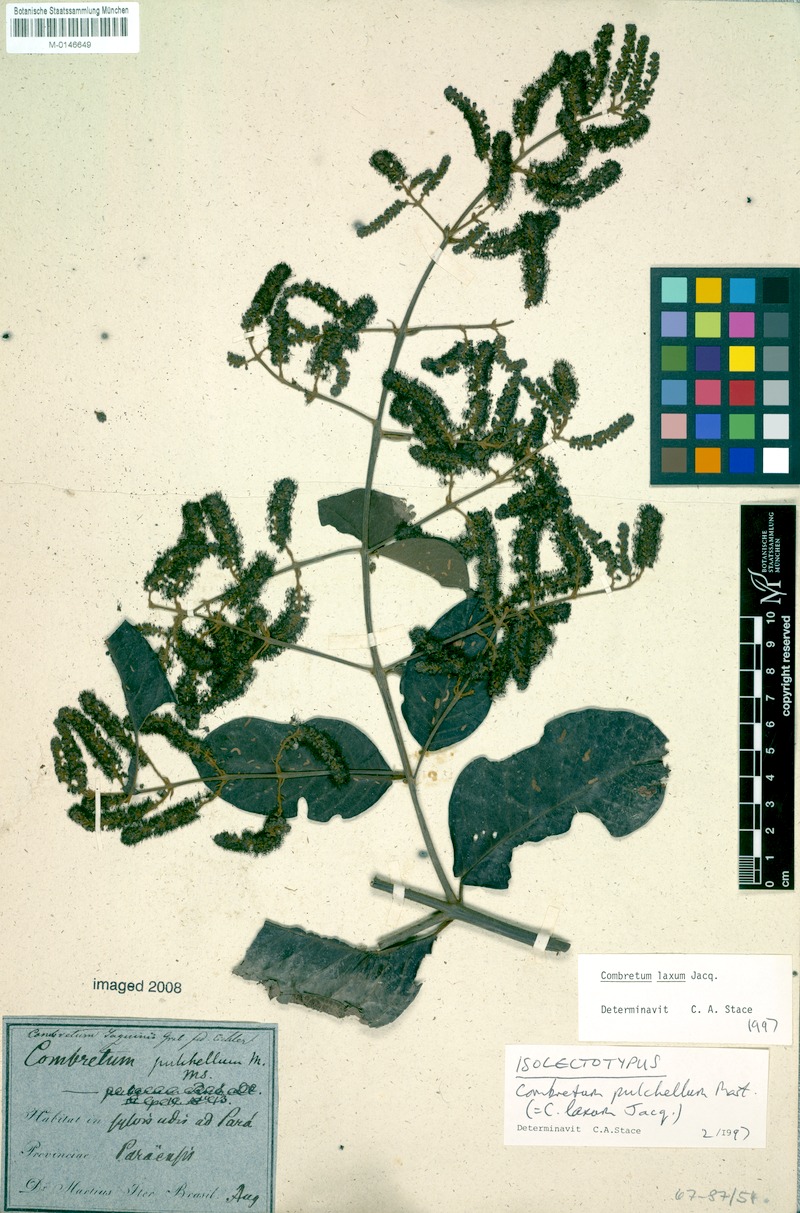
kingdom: Plantae
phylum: Tracheophyta
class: Magnoliopsida
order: Myrtales
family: Combretaceae
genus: Combretum
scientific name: Combretum laxum
